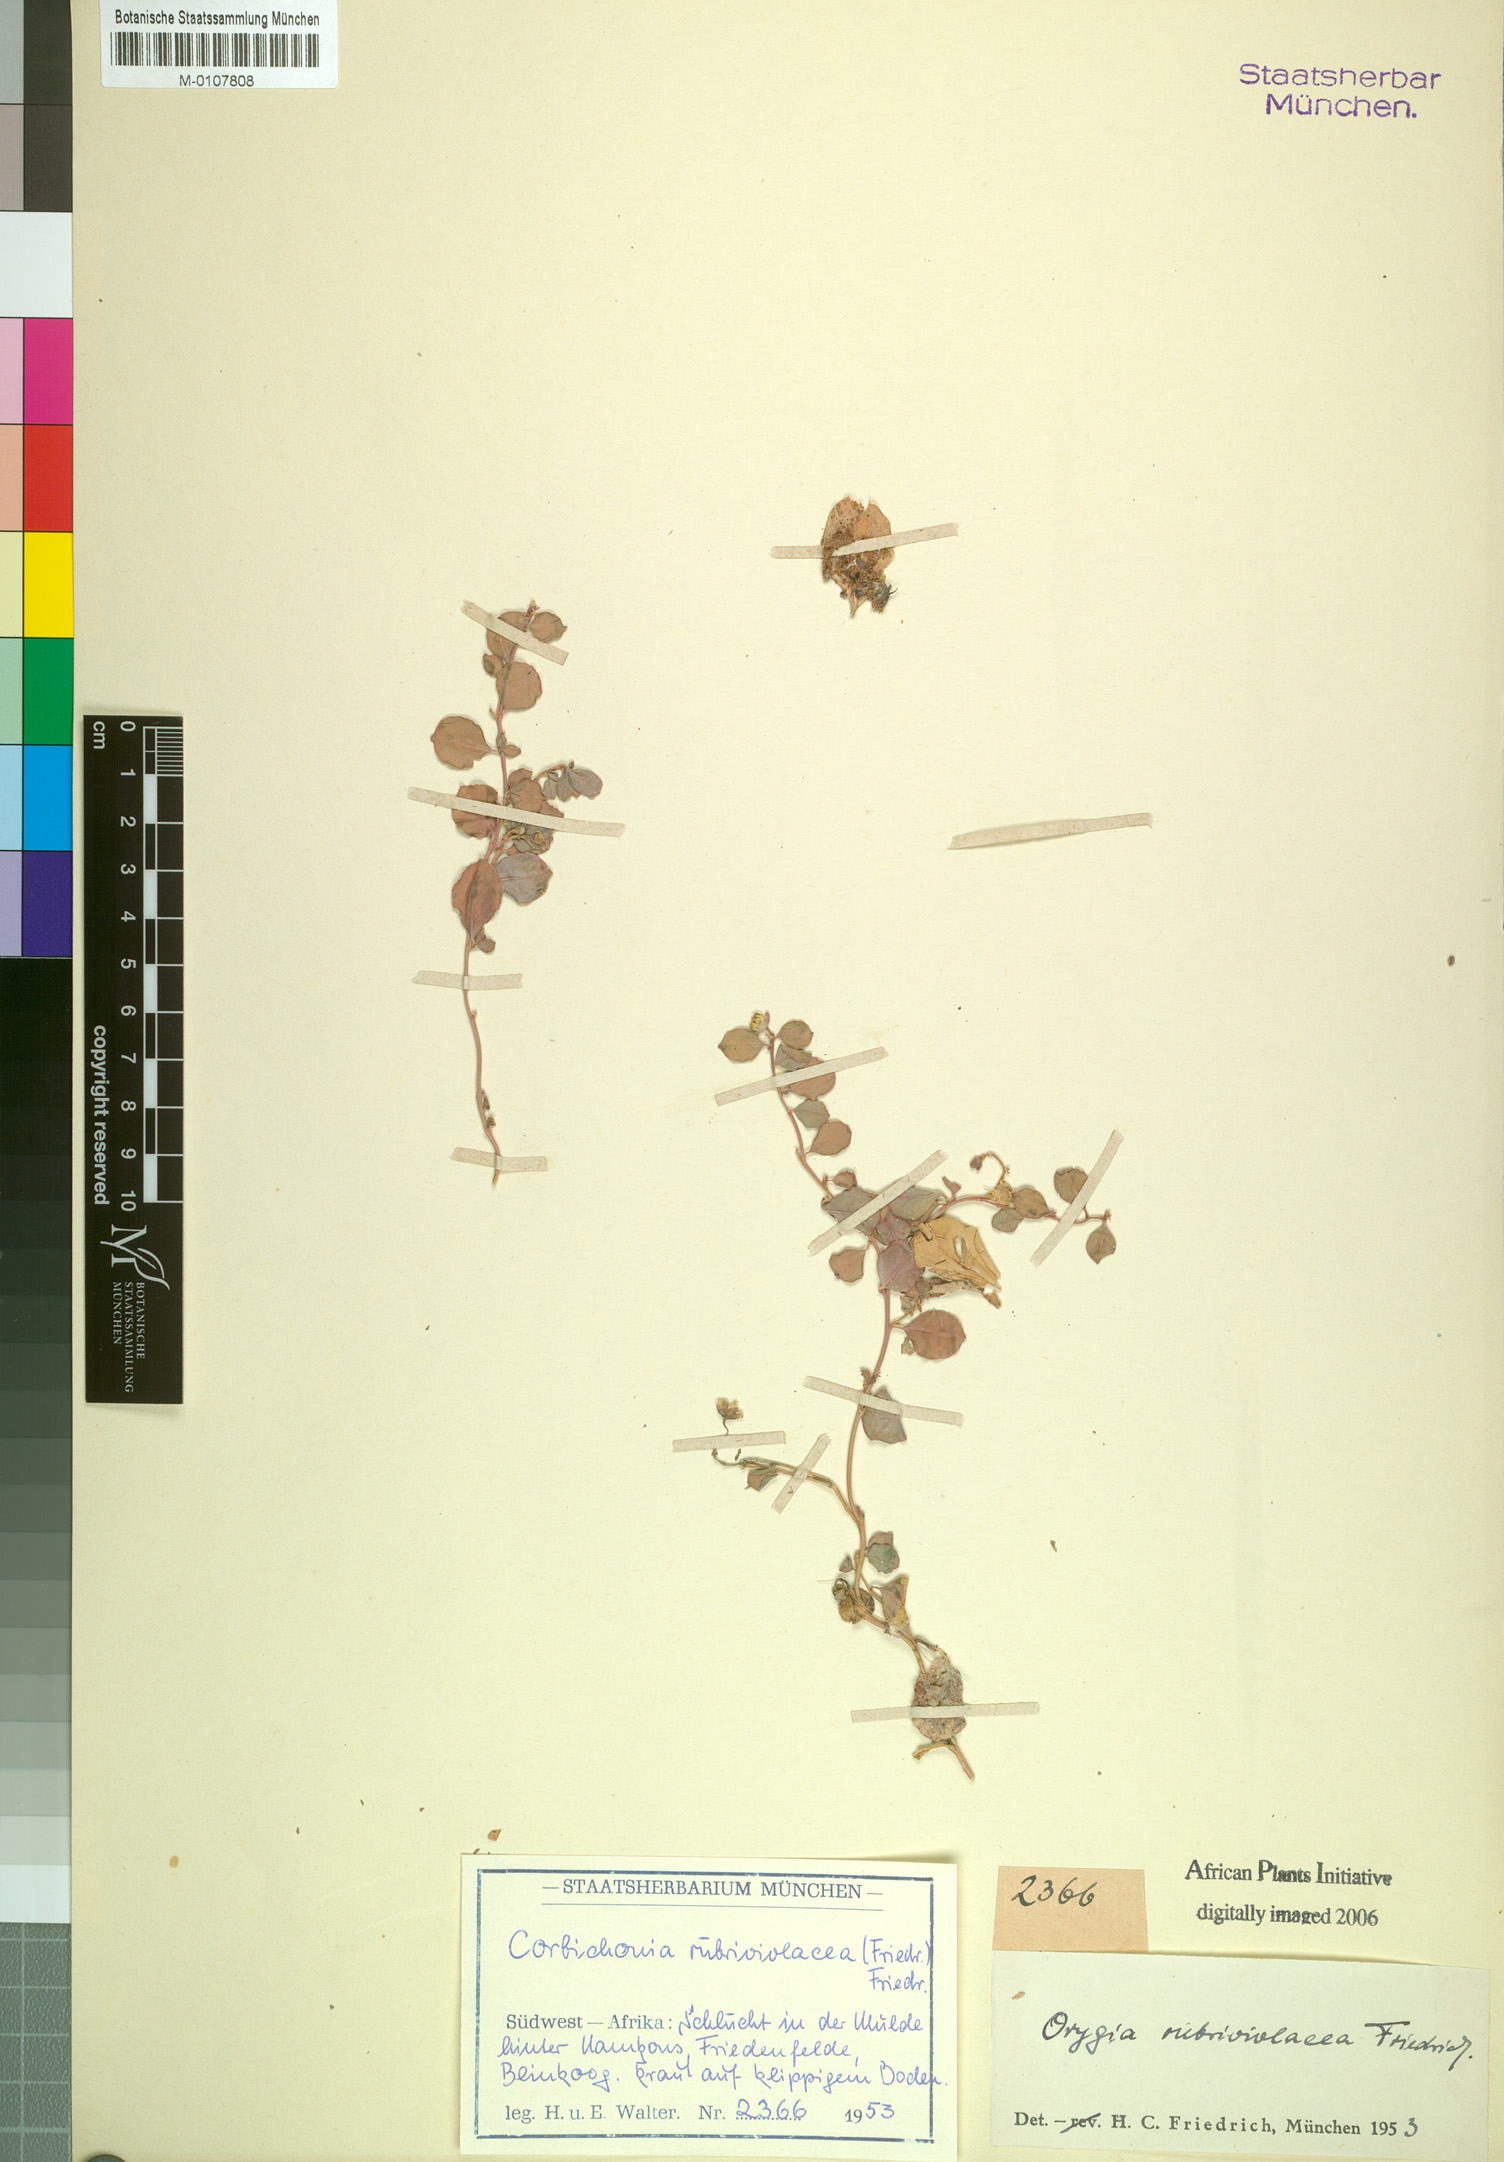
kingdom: Plantae
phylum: Tracheophyta
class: Magnoliopsida
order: Caryophyllales
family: Corbichoniaceae
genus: Corbichonia
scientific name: Corbichonia rubriviolacea
